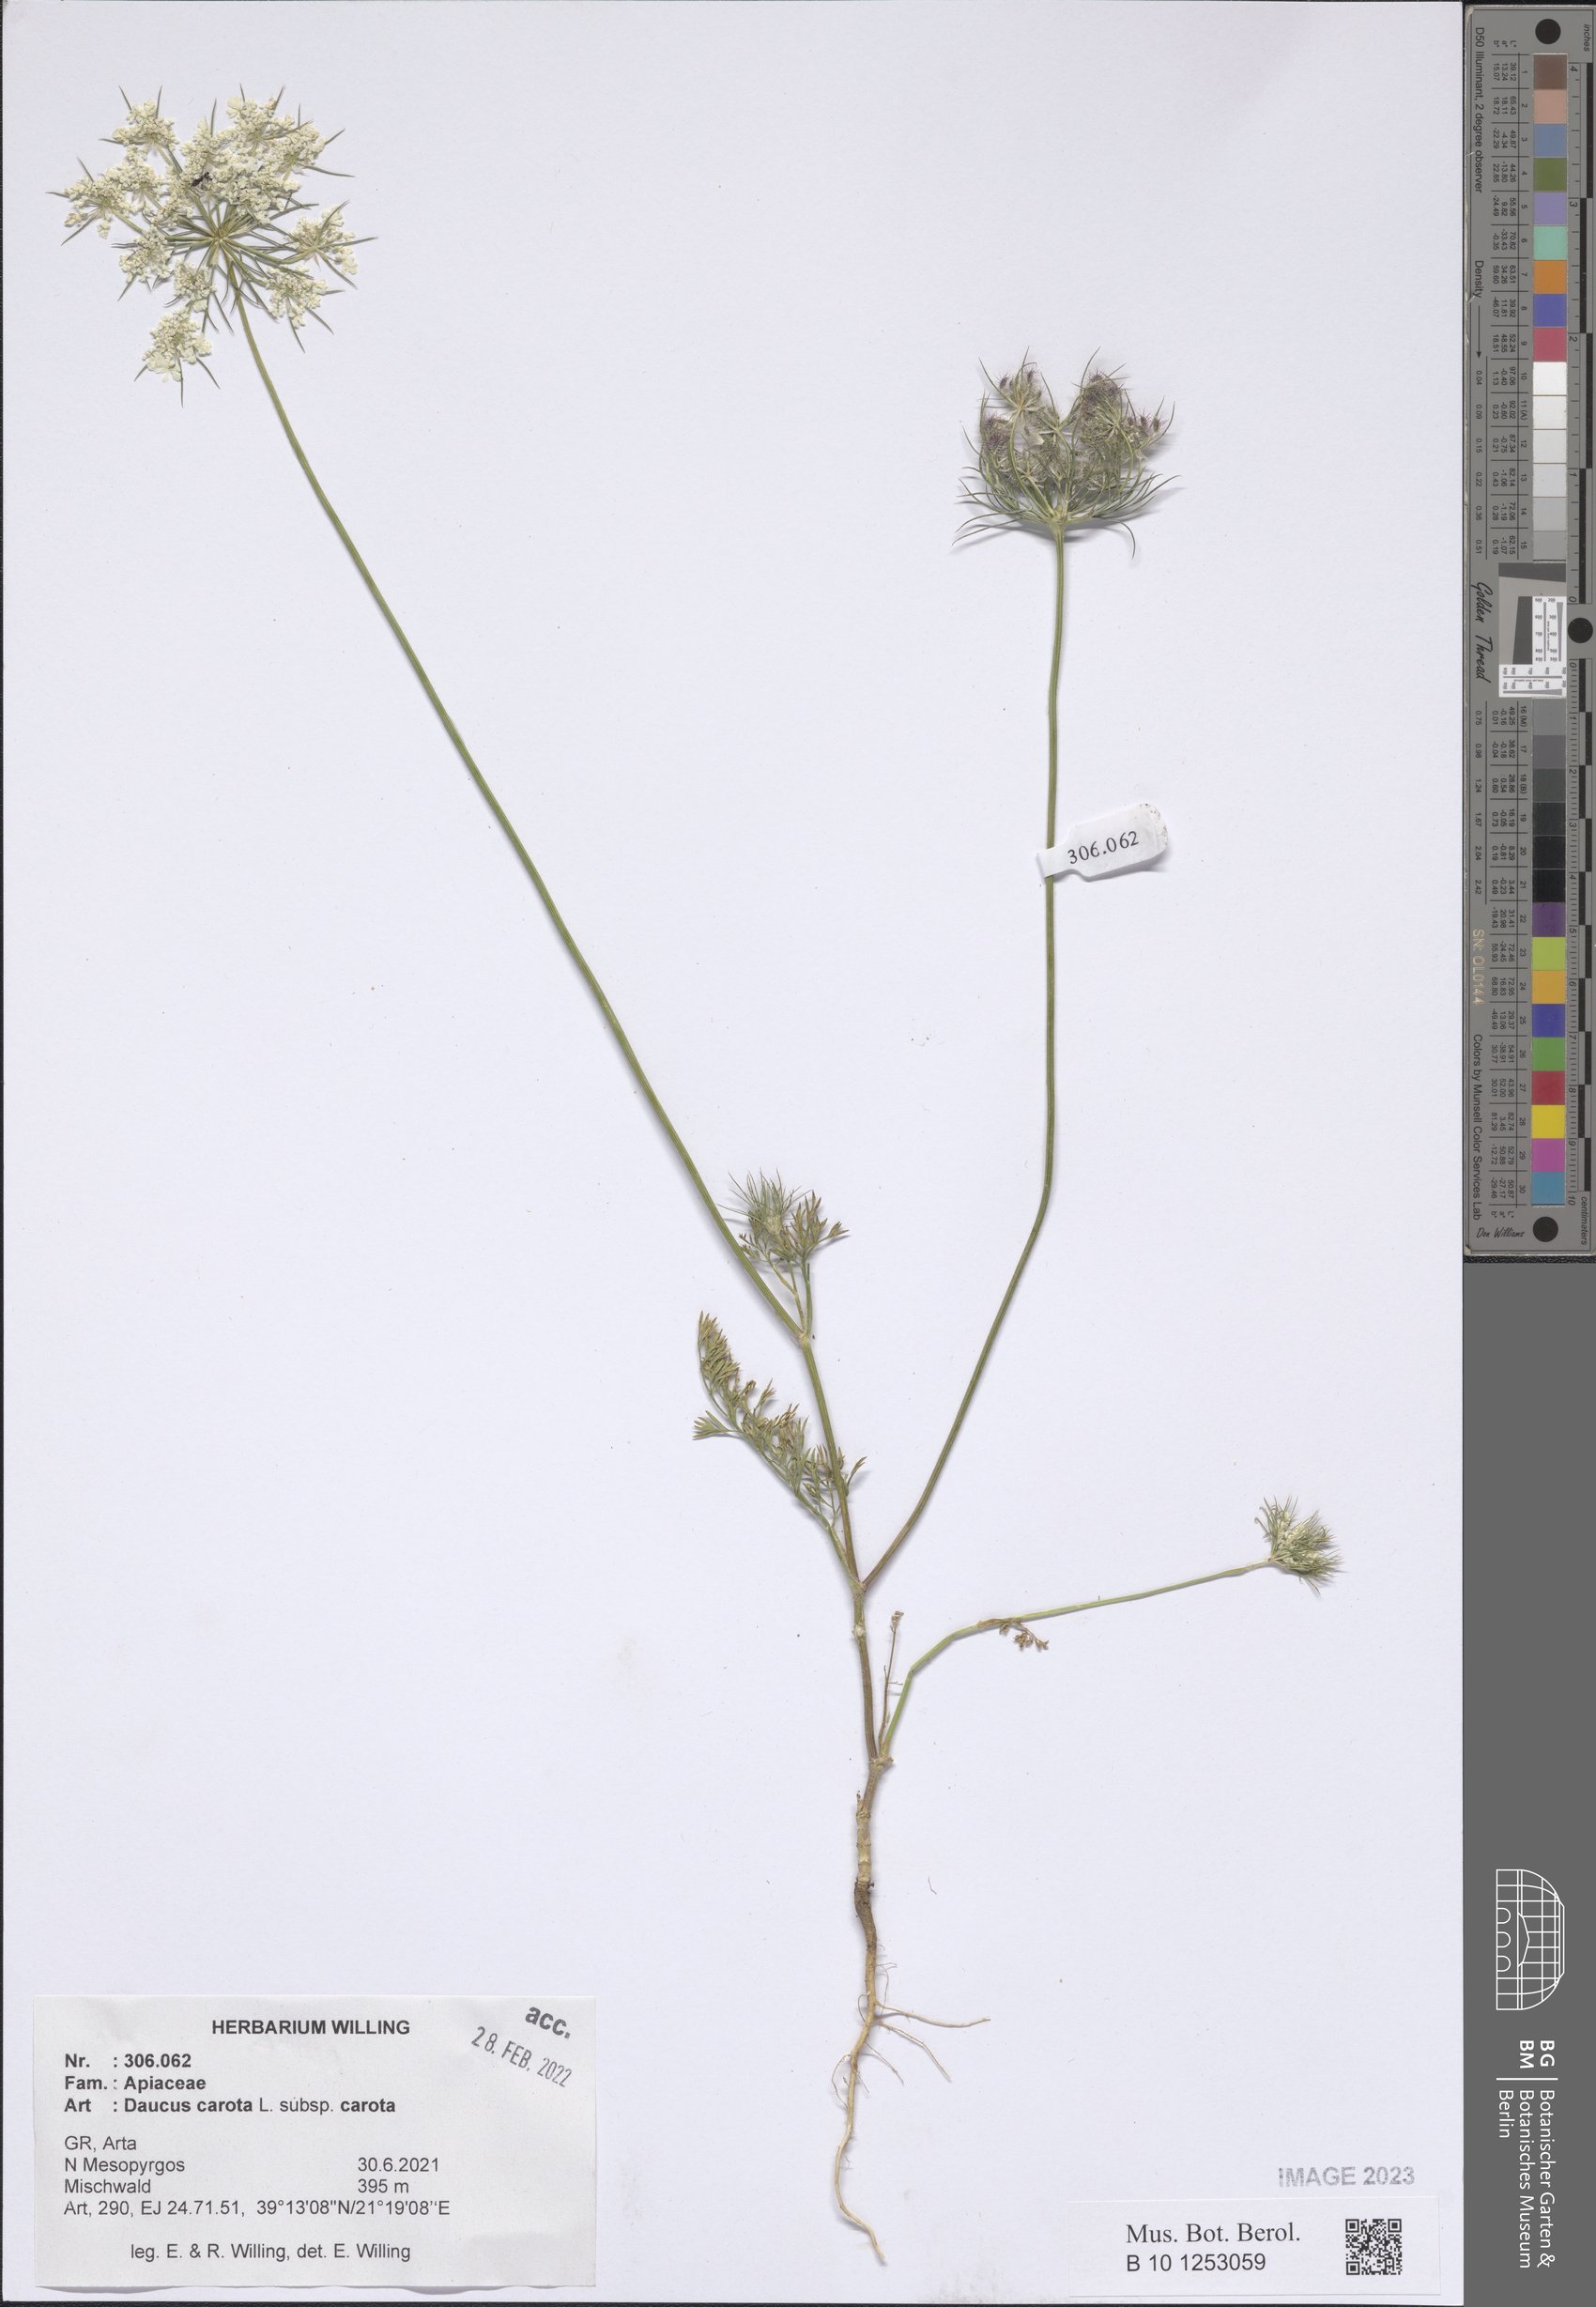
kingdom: Plantae
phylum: Tracheophyta
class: Magnoliopsida
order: Apiales
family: Apiaceae
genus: Daucus
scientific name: Daucus carota
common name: Wild carrot
